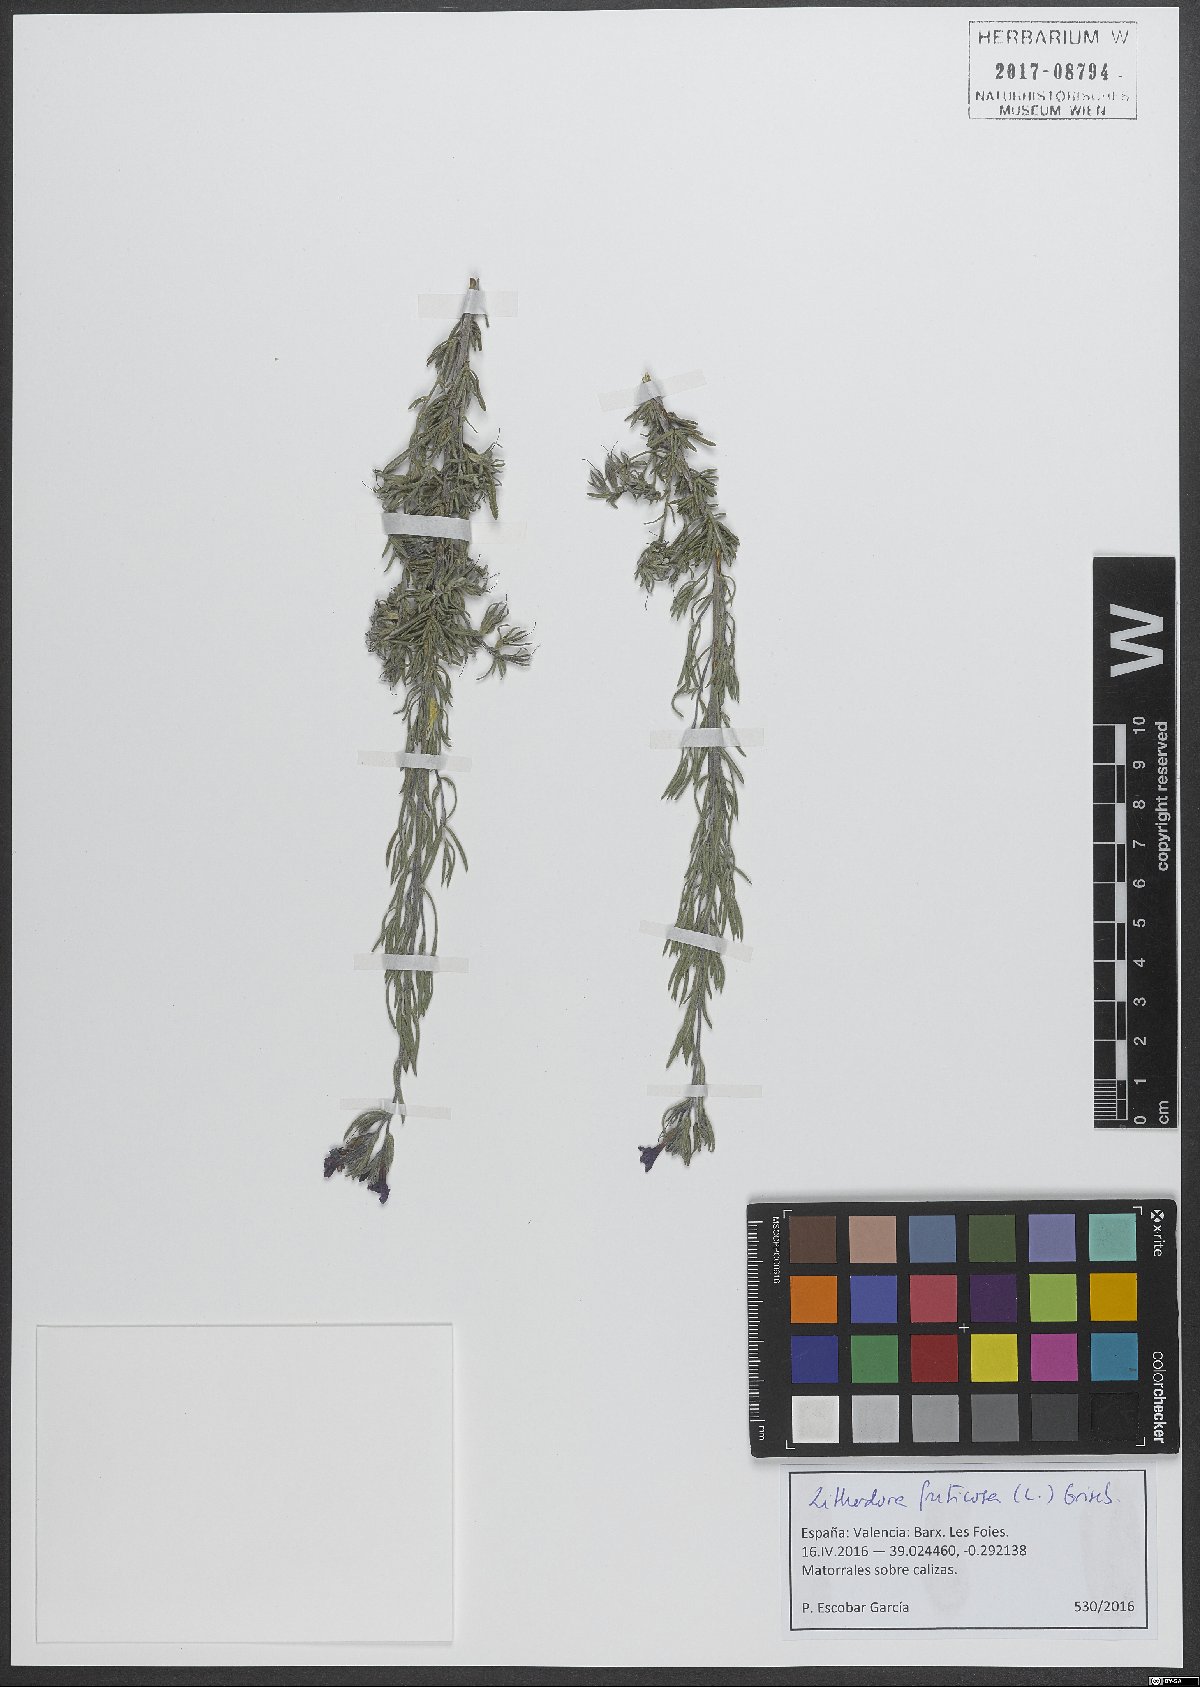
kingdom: Plantae
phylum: Tracheophyta
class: Magnoliopsida
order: Boraginales
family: Boraginaceae
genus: Lithodora
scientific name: Lithodora fruticosa
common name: Shrubby gromwell
